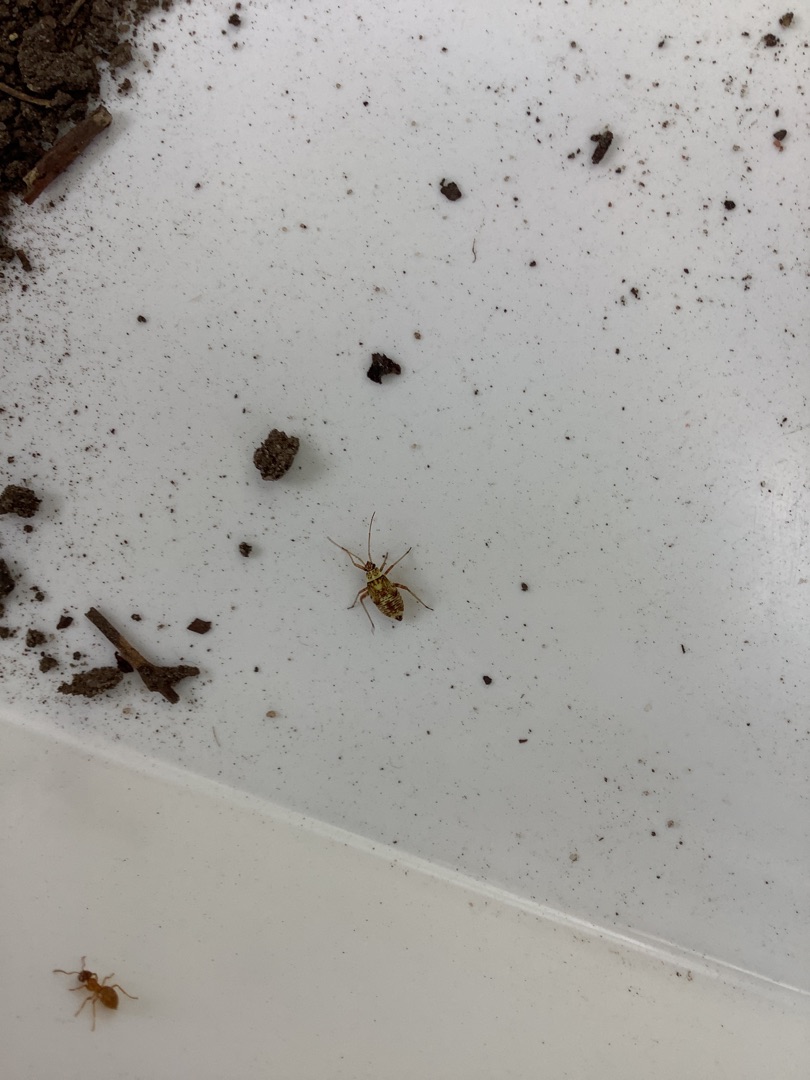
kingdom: Animalia
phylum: Arthropoda
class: Insecta
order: Hemiptera
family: Miridae
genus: Rhabdomiris
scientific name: Rhabdomiris striatellus
